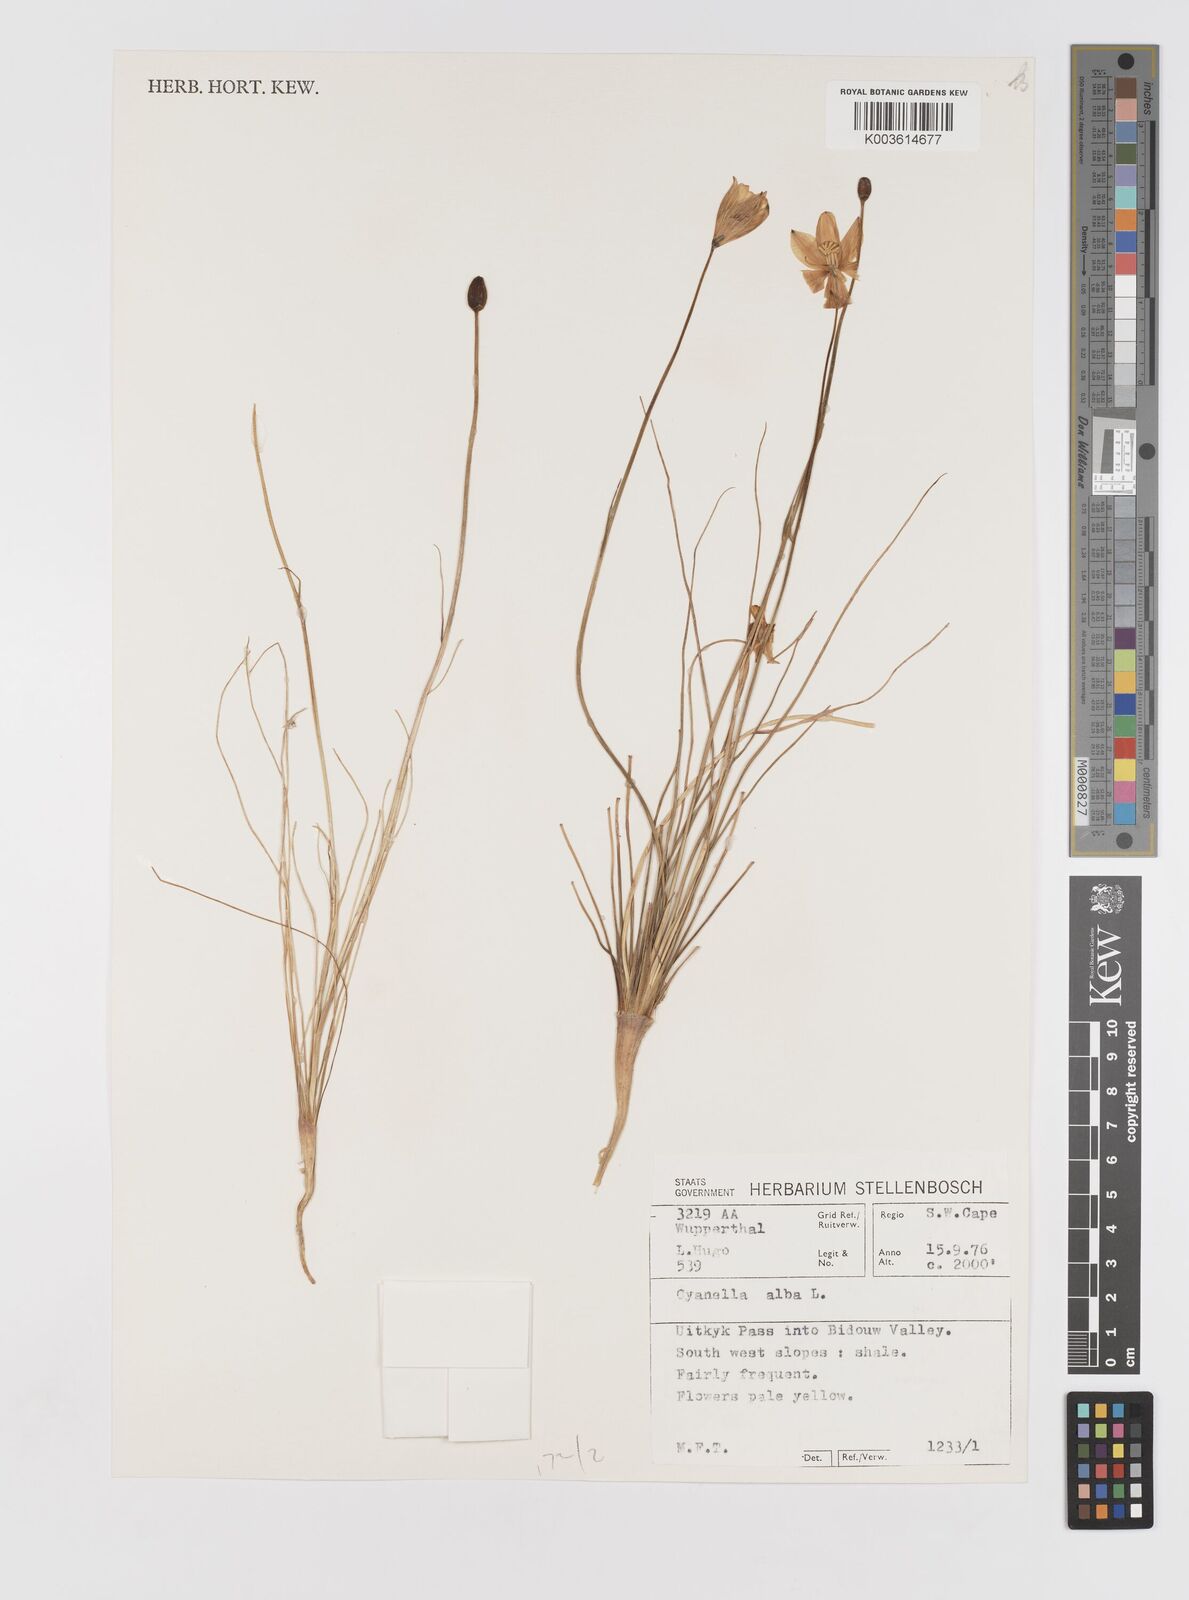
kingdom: Plantae
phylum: Tracheophyta
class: Liliopsida
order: Asparagales
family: Tecophilaeaceae
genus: Cyanella
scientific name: Cyanella alba
